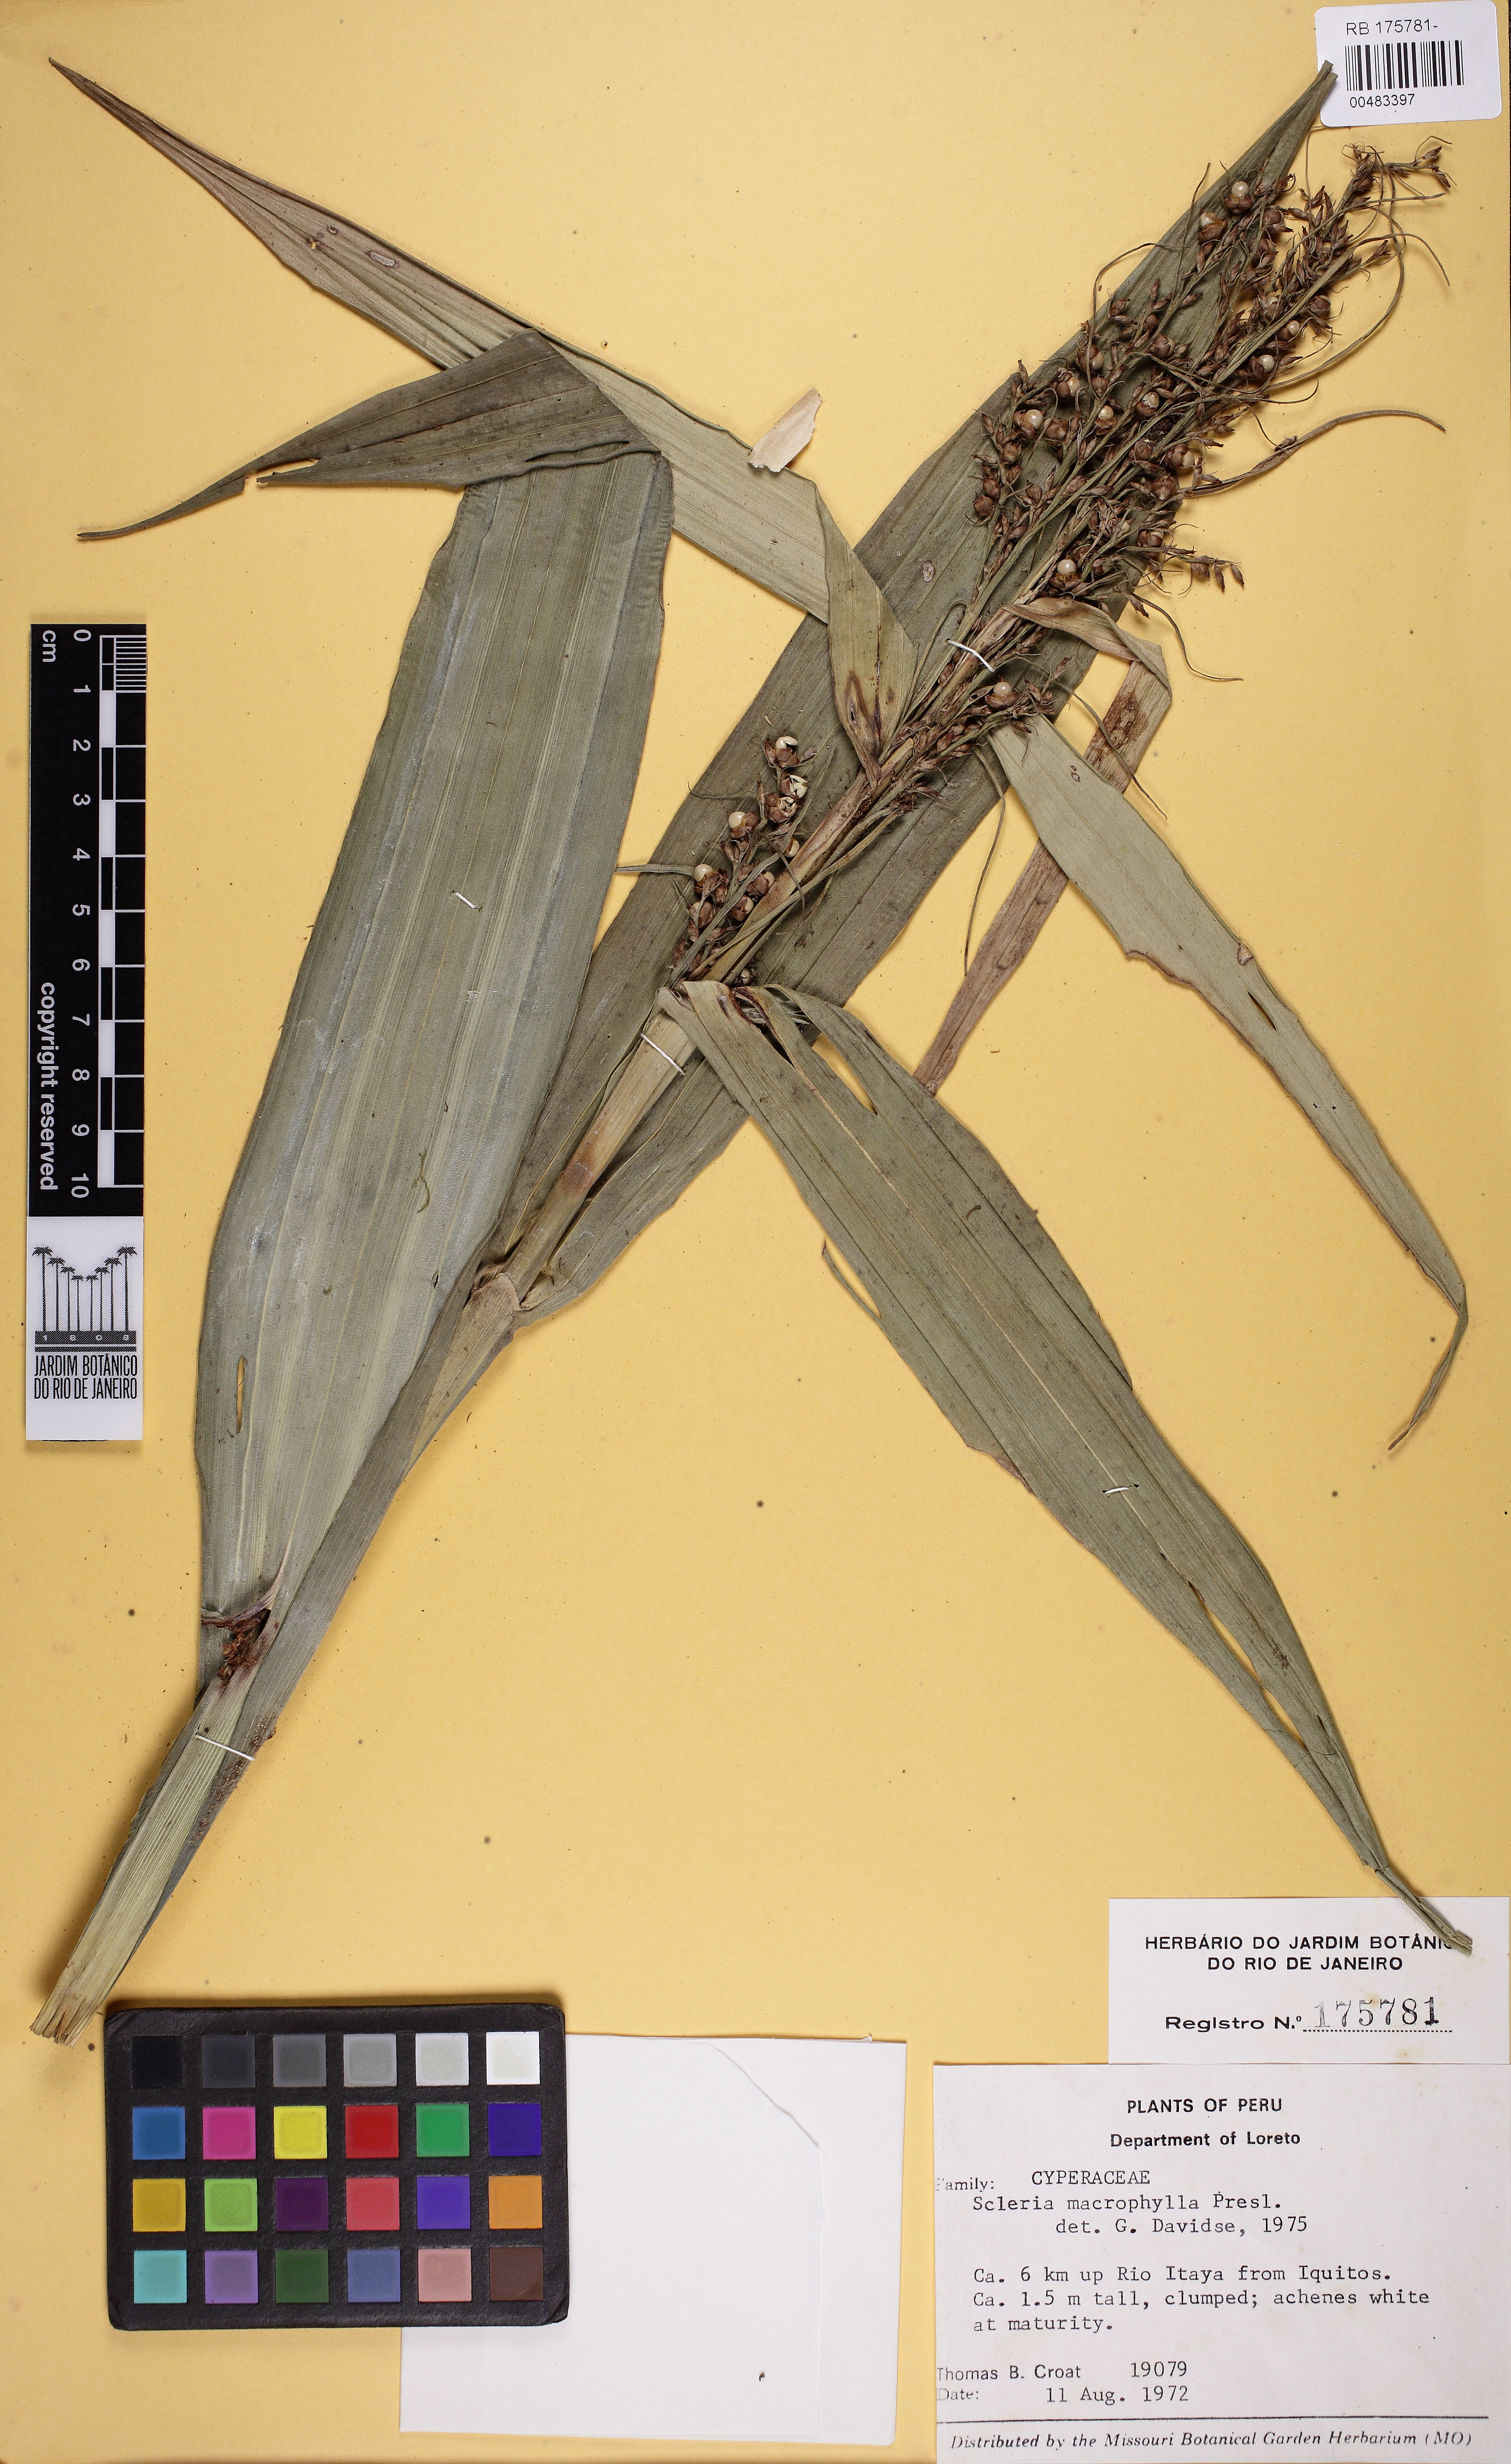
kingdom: Plantae
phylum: Tracheophyta
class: Liliopsida
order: Poales
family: Cyperaceae
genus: Scleria
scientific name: Scleria macrophylla
